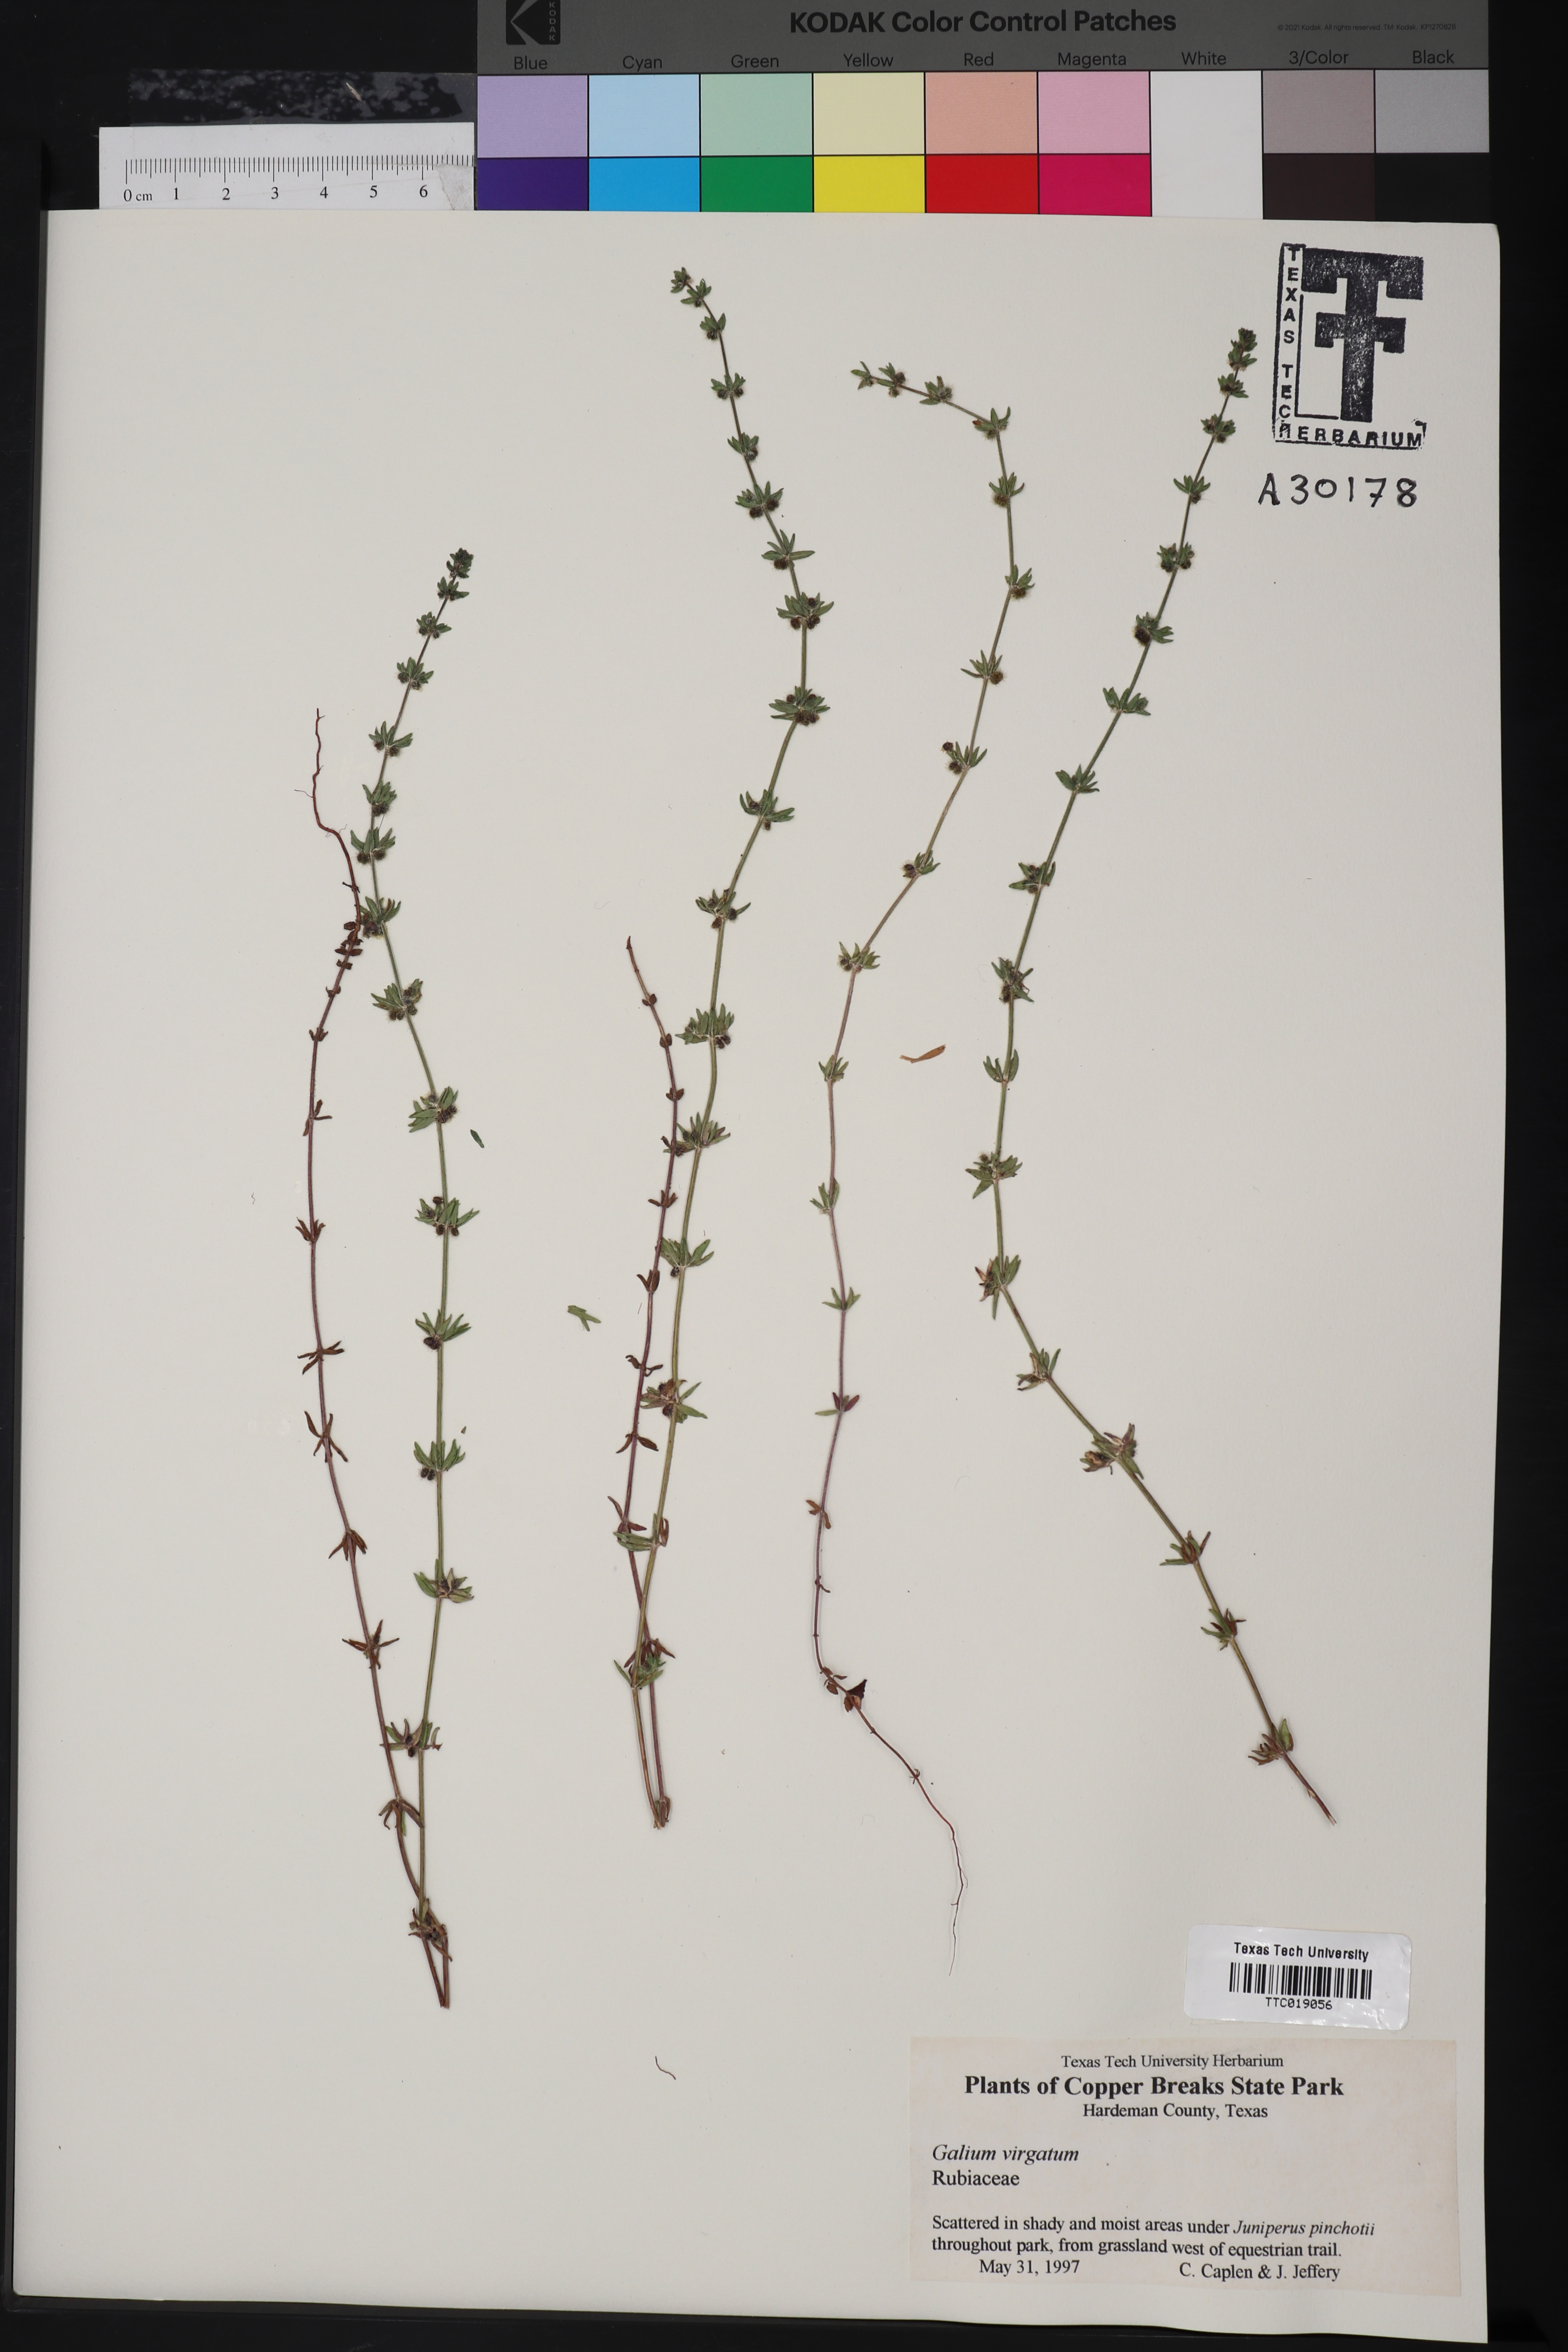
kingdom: Plantae
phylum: Tracheophyta
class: Magnoliopsida
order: Gentianales
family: Rubiaceae
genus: Galium
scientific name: Galium virgatum
